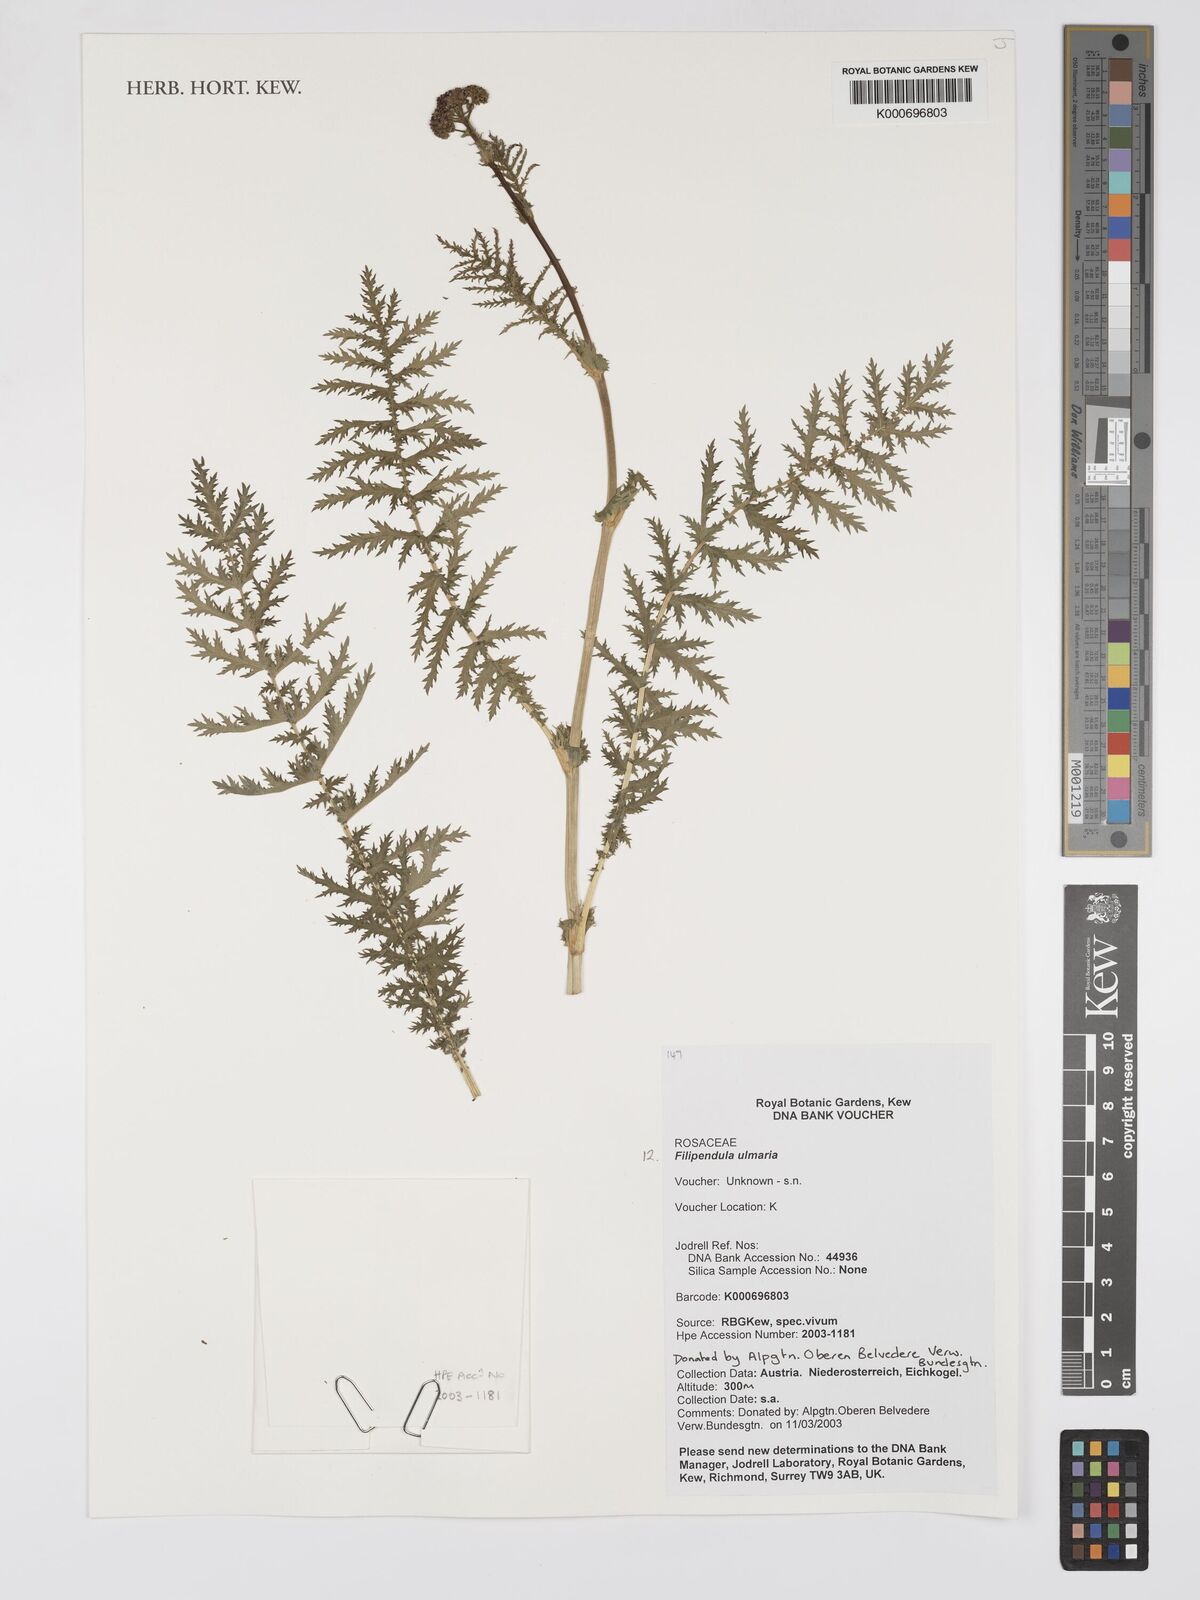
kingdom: Plantae
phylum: Tracheophyta
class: Magnoliopsida
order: Rosales
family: Rosaceae
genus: Filipendula
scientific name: Filipendula ulmaria
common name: Meadowsweet
